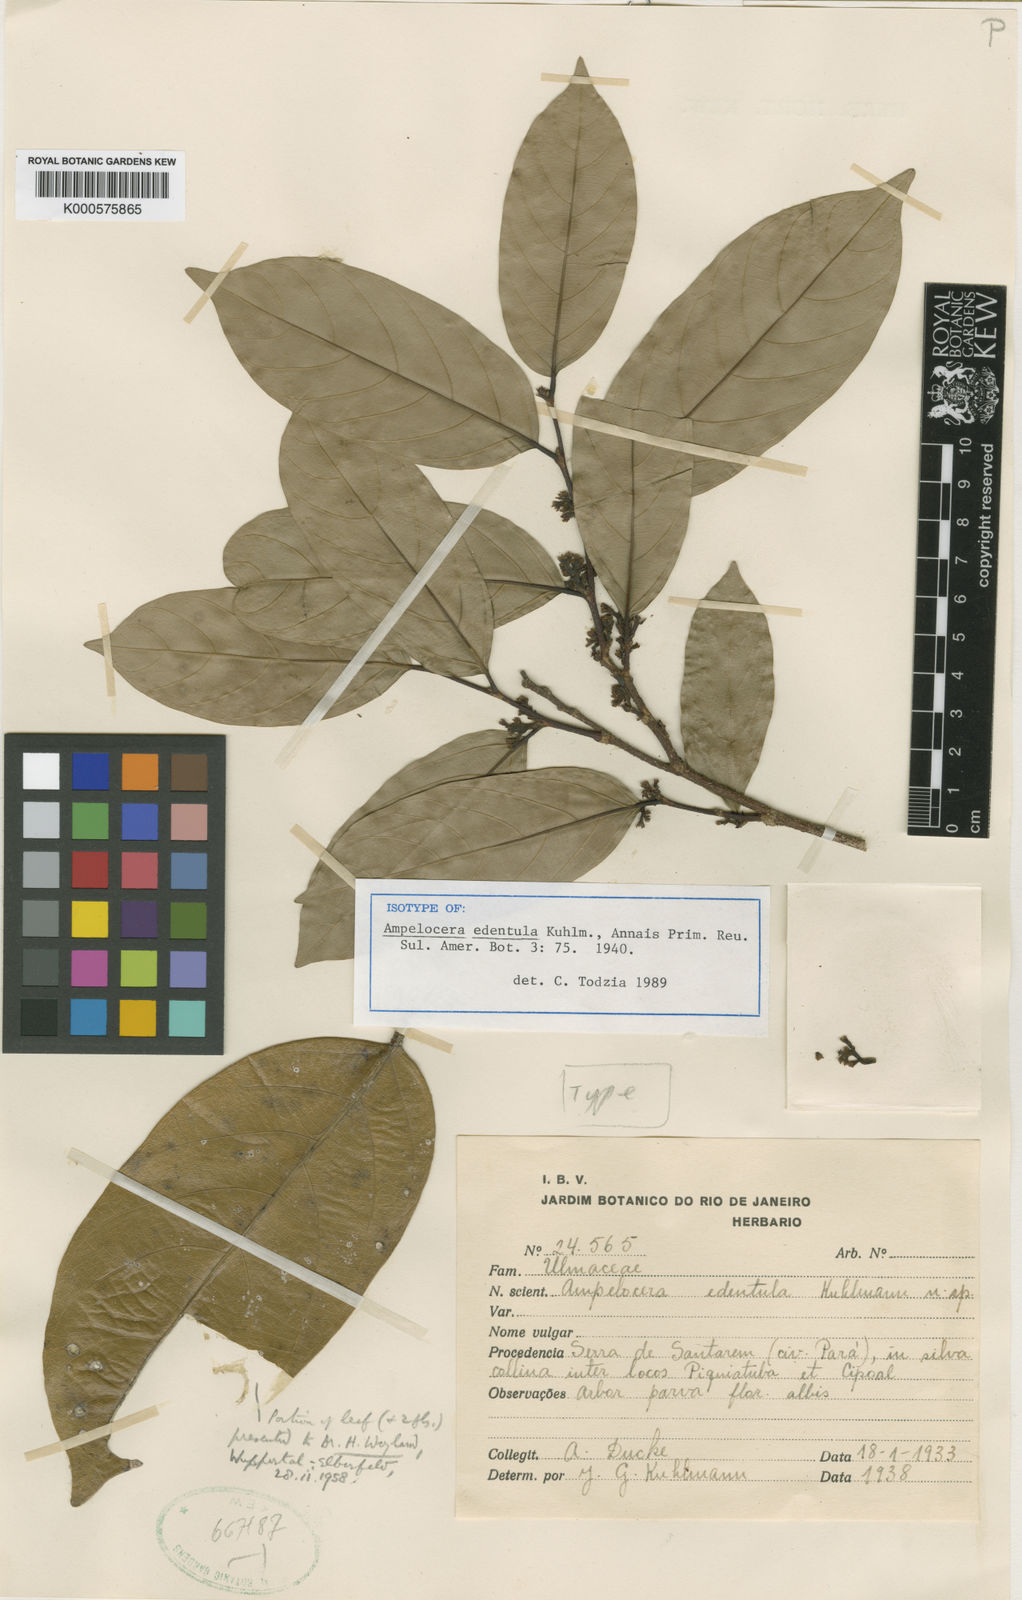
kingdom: Plantae
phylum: Tracheophyta
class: Magnoliopsida
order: Rosales
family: Cannabaceae
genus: Ampelocera
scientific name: Ampelocera edentula
